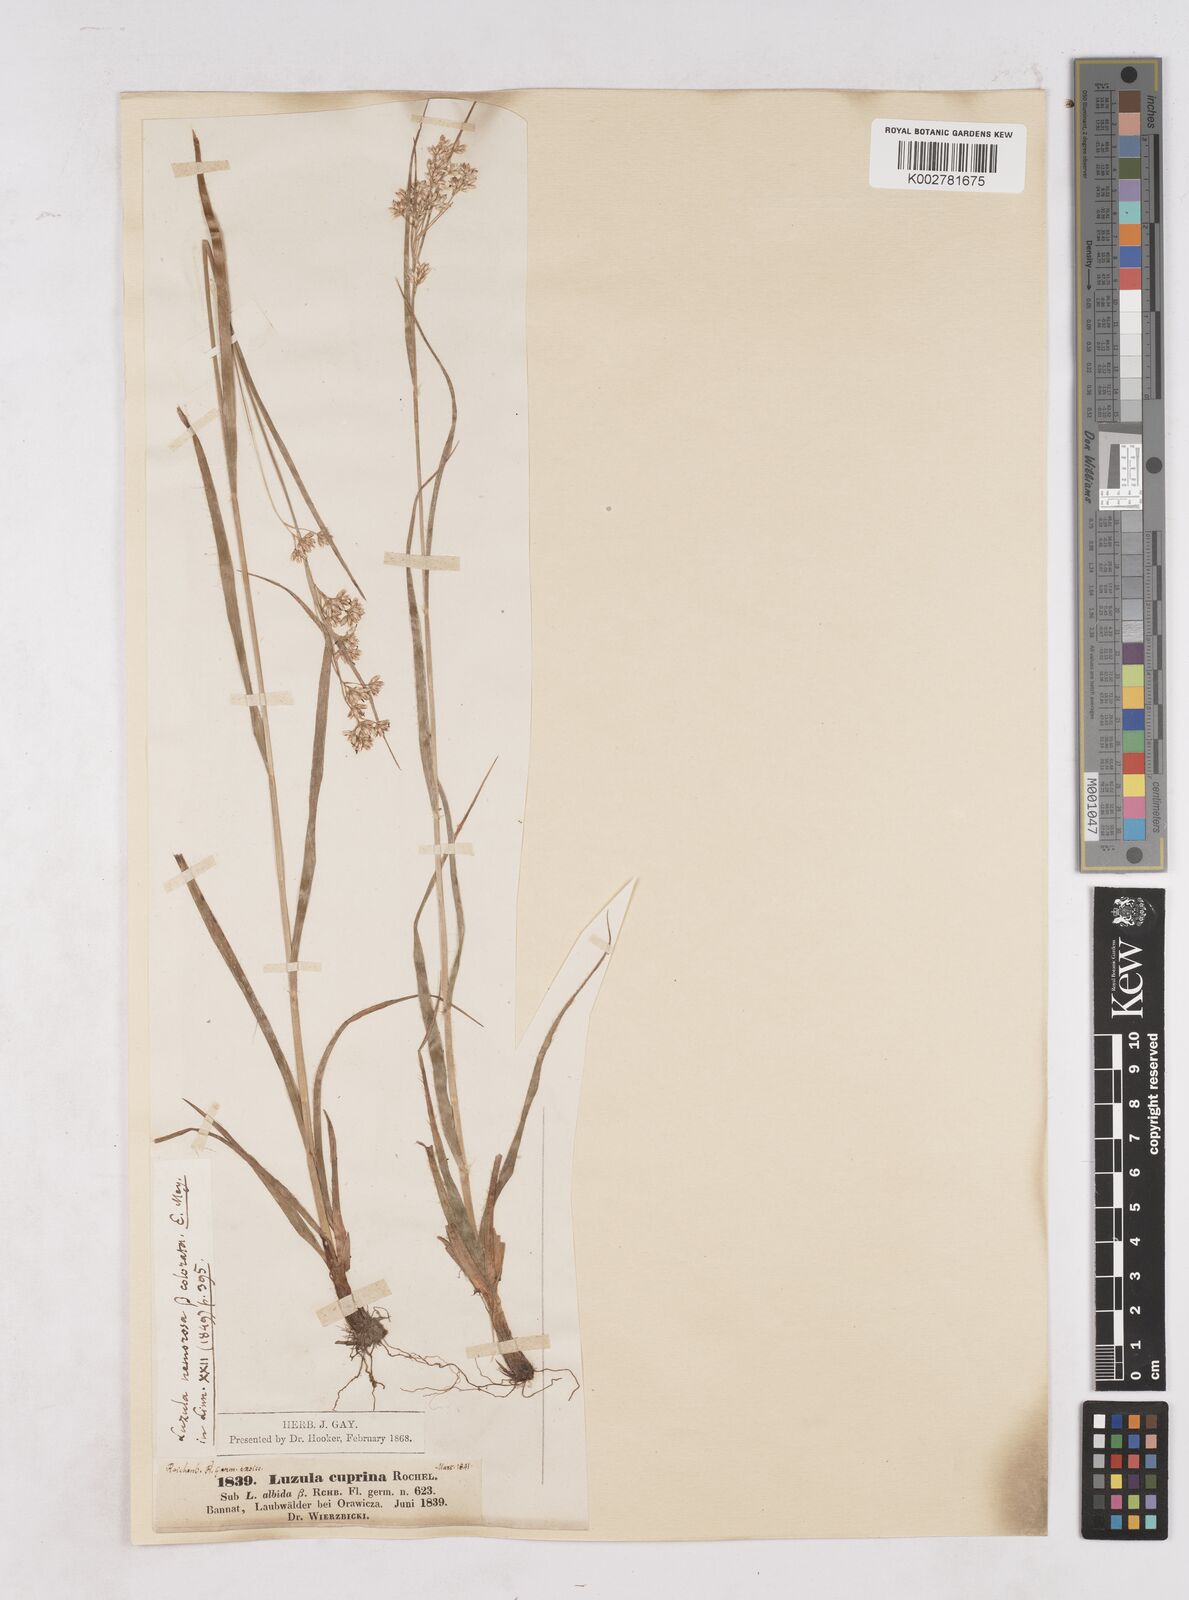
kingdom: Plantae
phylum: Tracheophyta
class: Liliopsida
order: Poales
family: Juncaceae
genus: Luzula
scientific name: Luzula luzuloides
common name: White wood-rush
